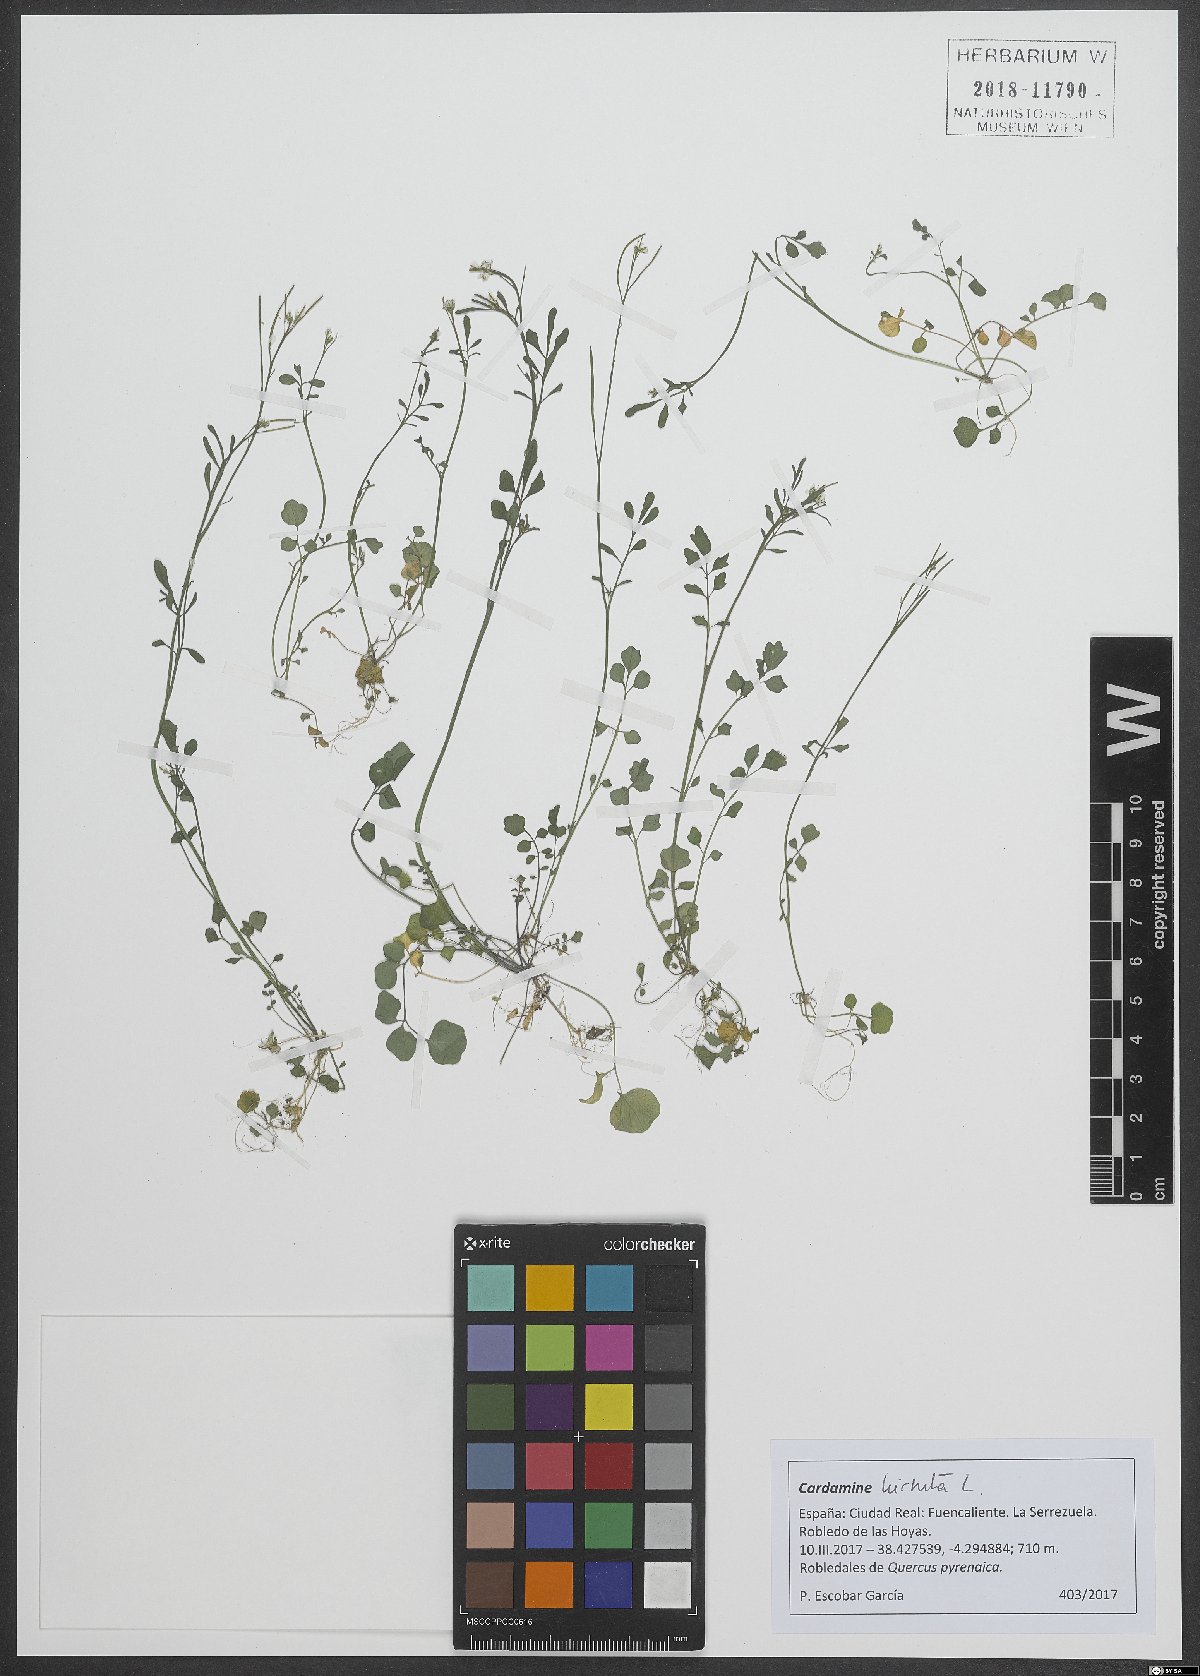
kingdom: Plantae
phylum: Tracheophyta
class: Magnoliopsida
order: Brassicales
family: Brassicaceae
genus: Cardamine
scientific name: Cardamine hirsuta
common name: Hairy bittercress
